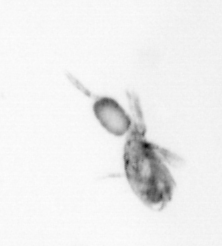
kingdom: Animalia
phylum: Arthropoda
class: Copepoda
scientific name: Copepoda
